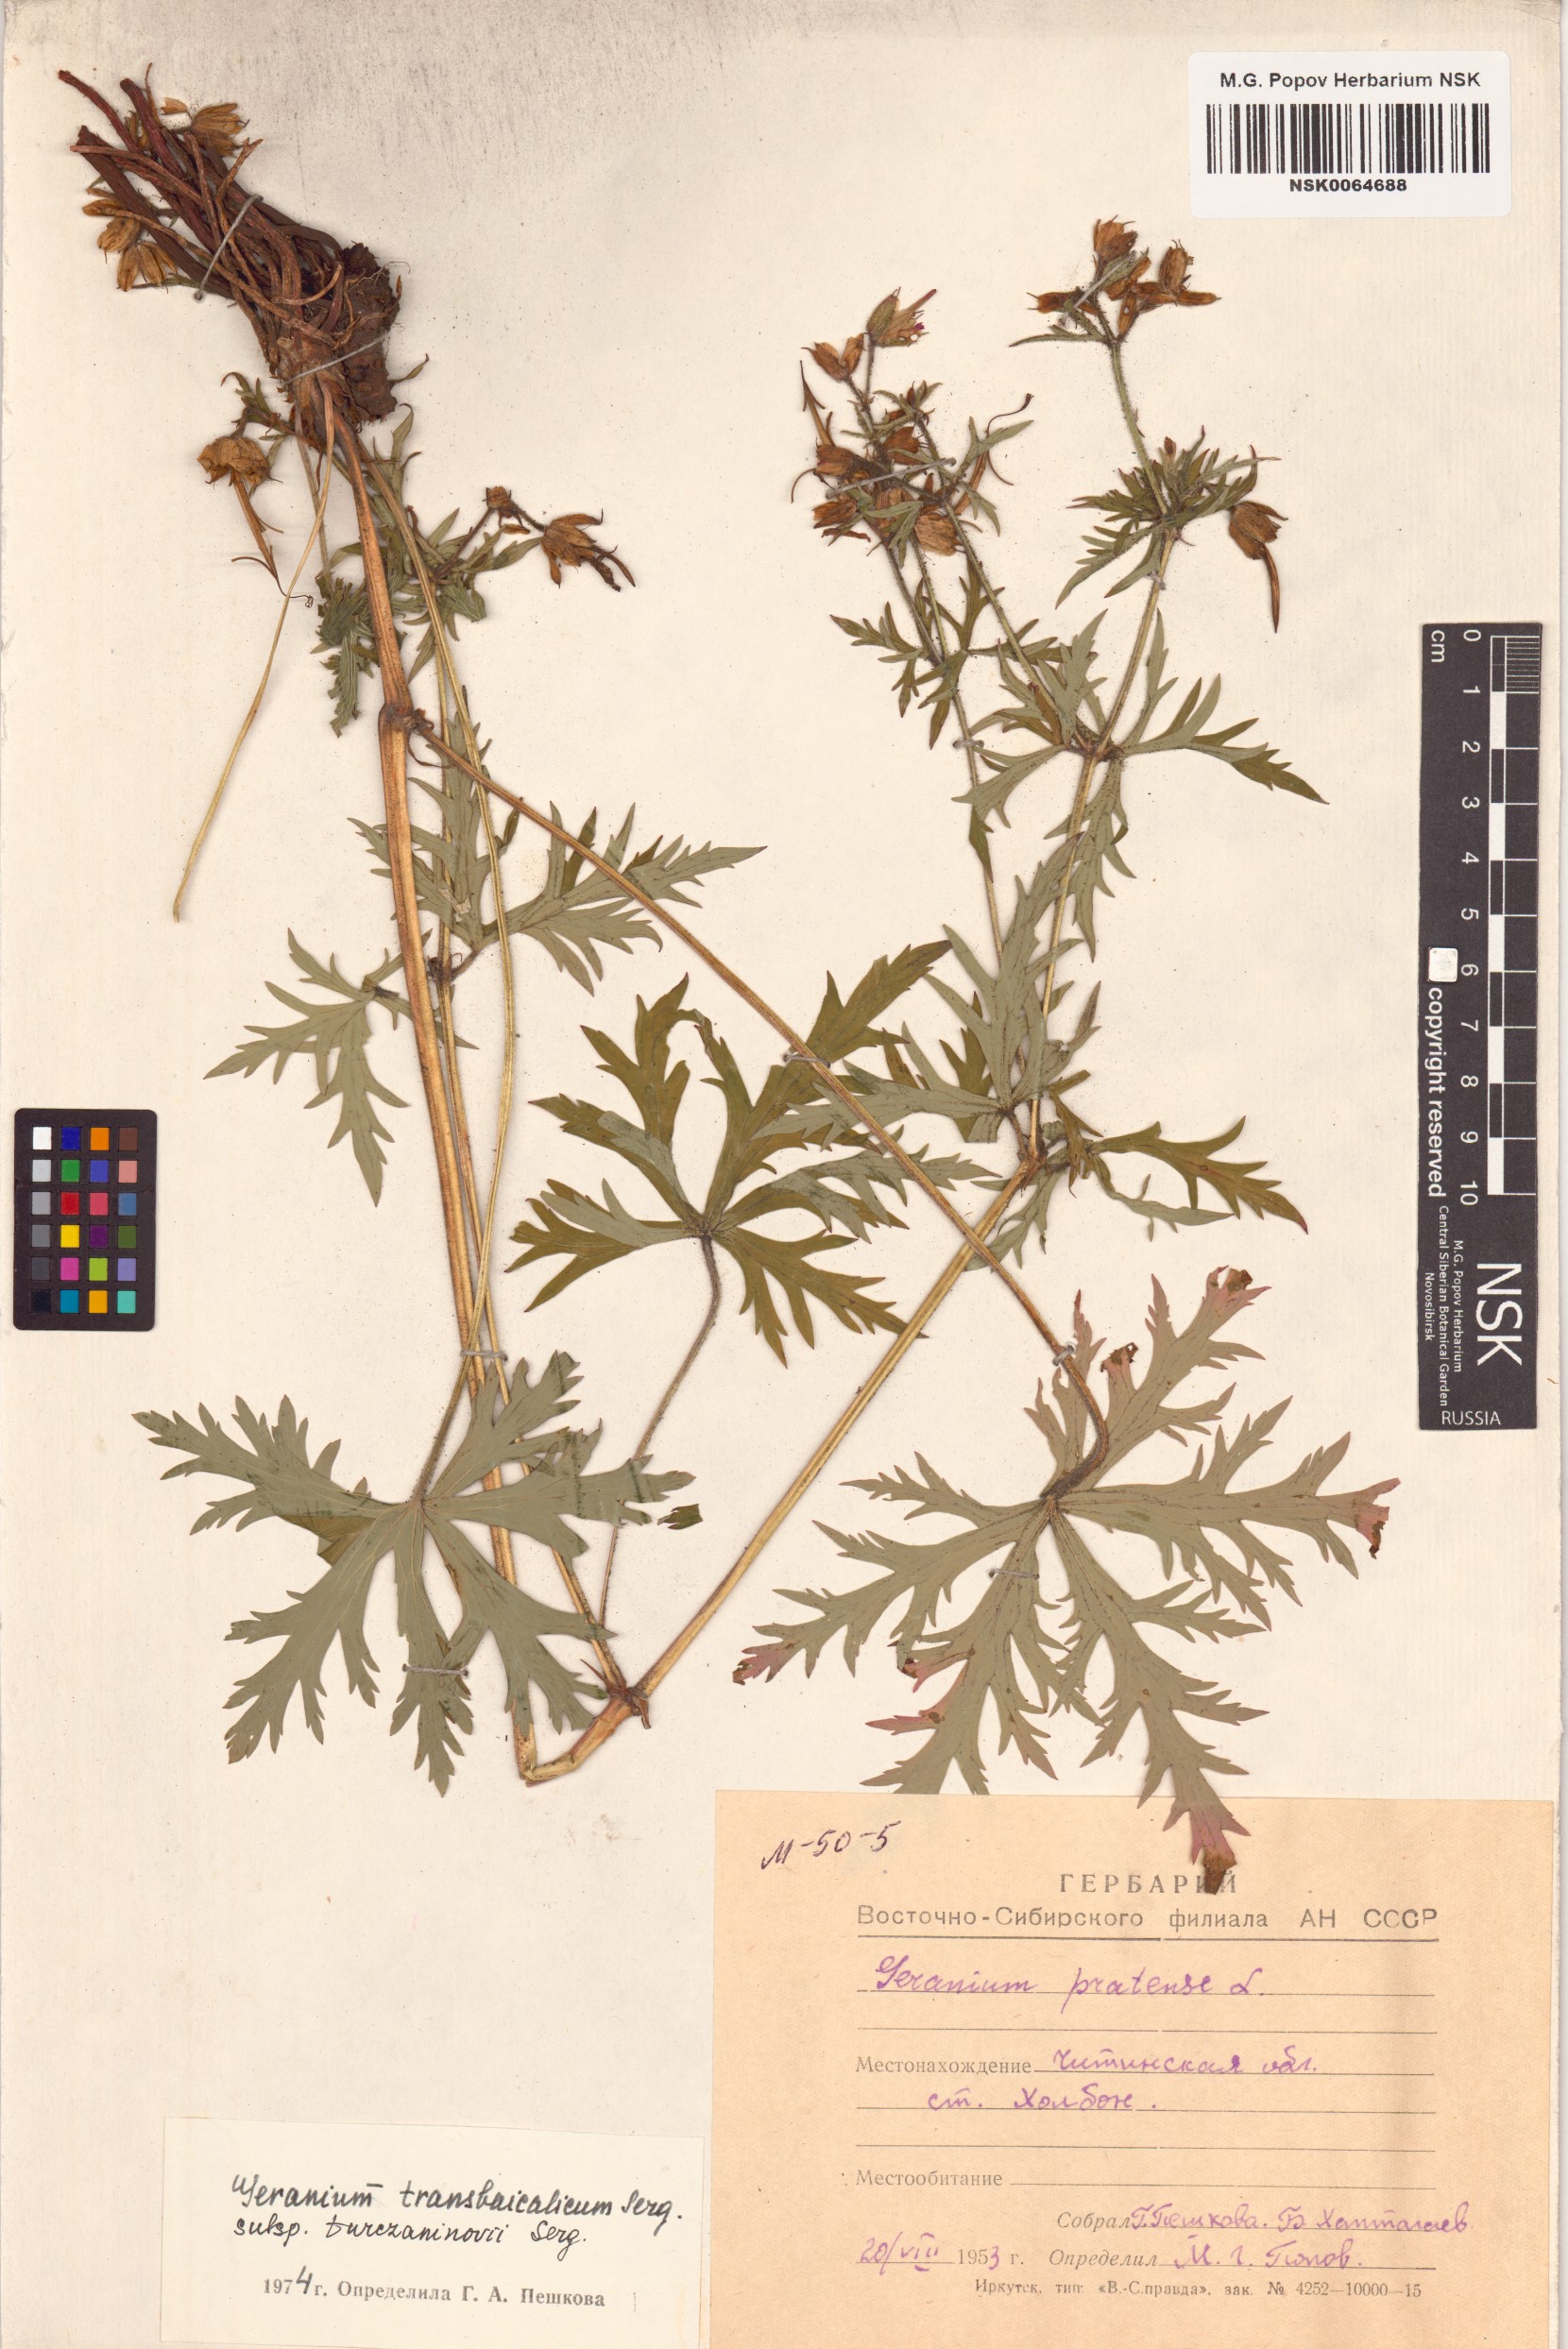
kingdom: Plantae
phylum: Tracheophyta
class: Magnoliopsida
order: Geraniales
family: Geraniaceae
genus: Geranium
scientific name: Geranium pratense
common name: Meadow crane's-bill
